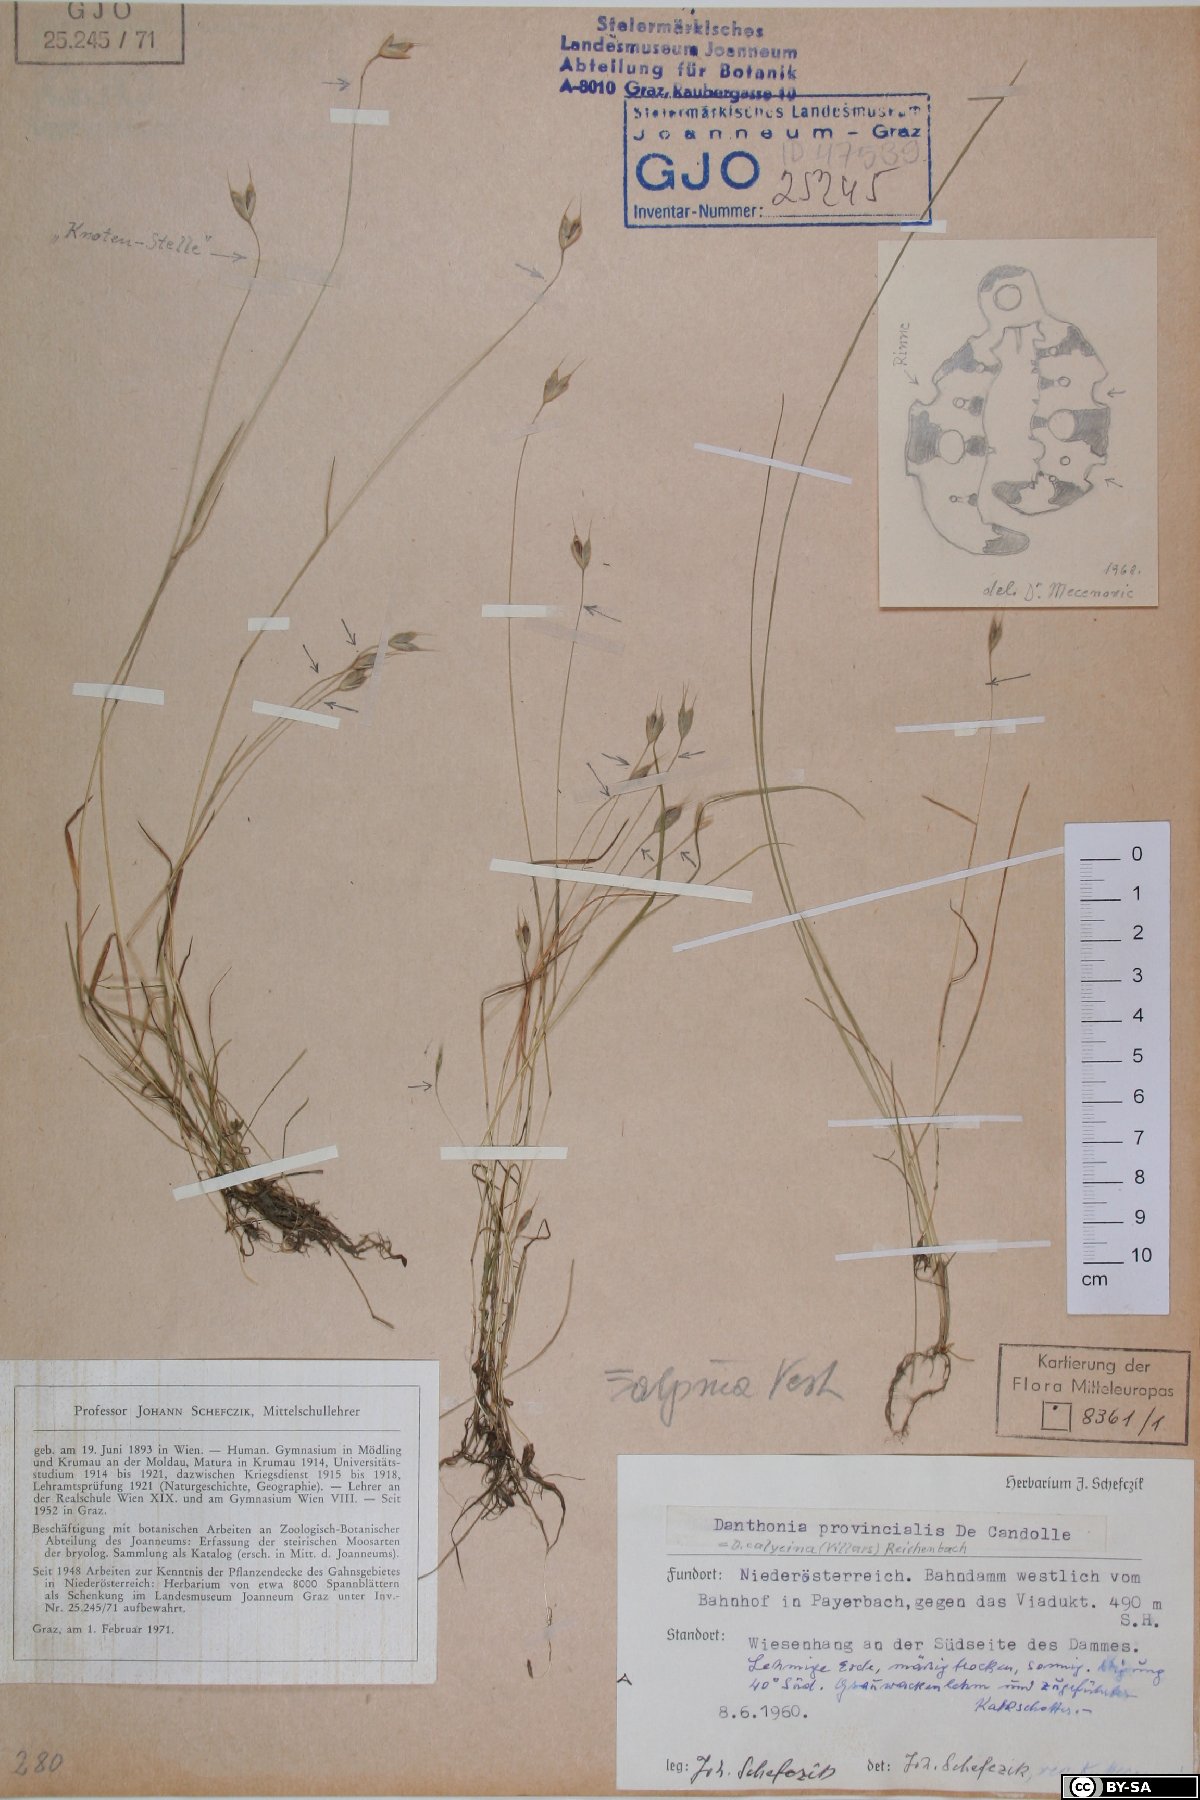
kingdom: Plantae
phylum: Tracheophyta
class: Liliopsida
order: Poales
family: Poaceae
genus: Danthonia
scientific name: Danthonia alpina
